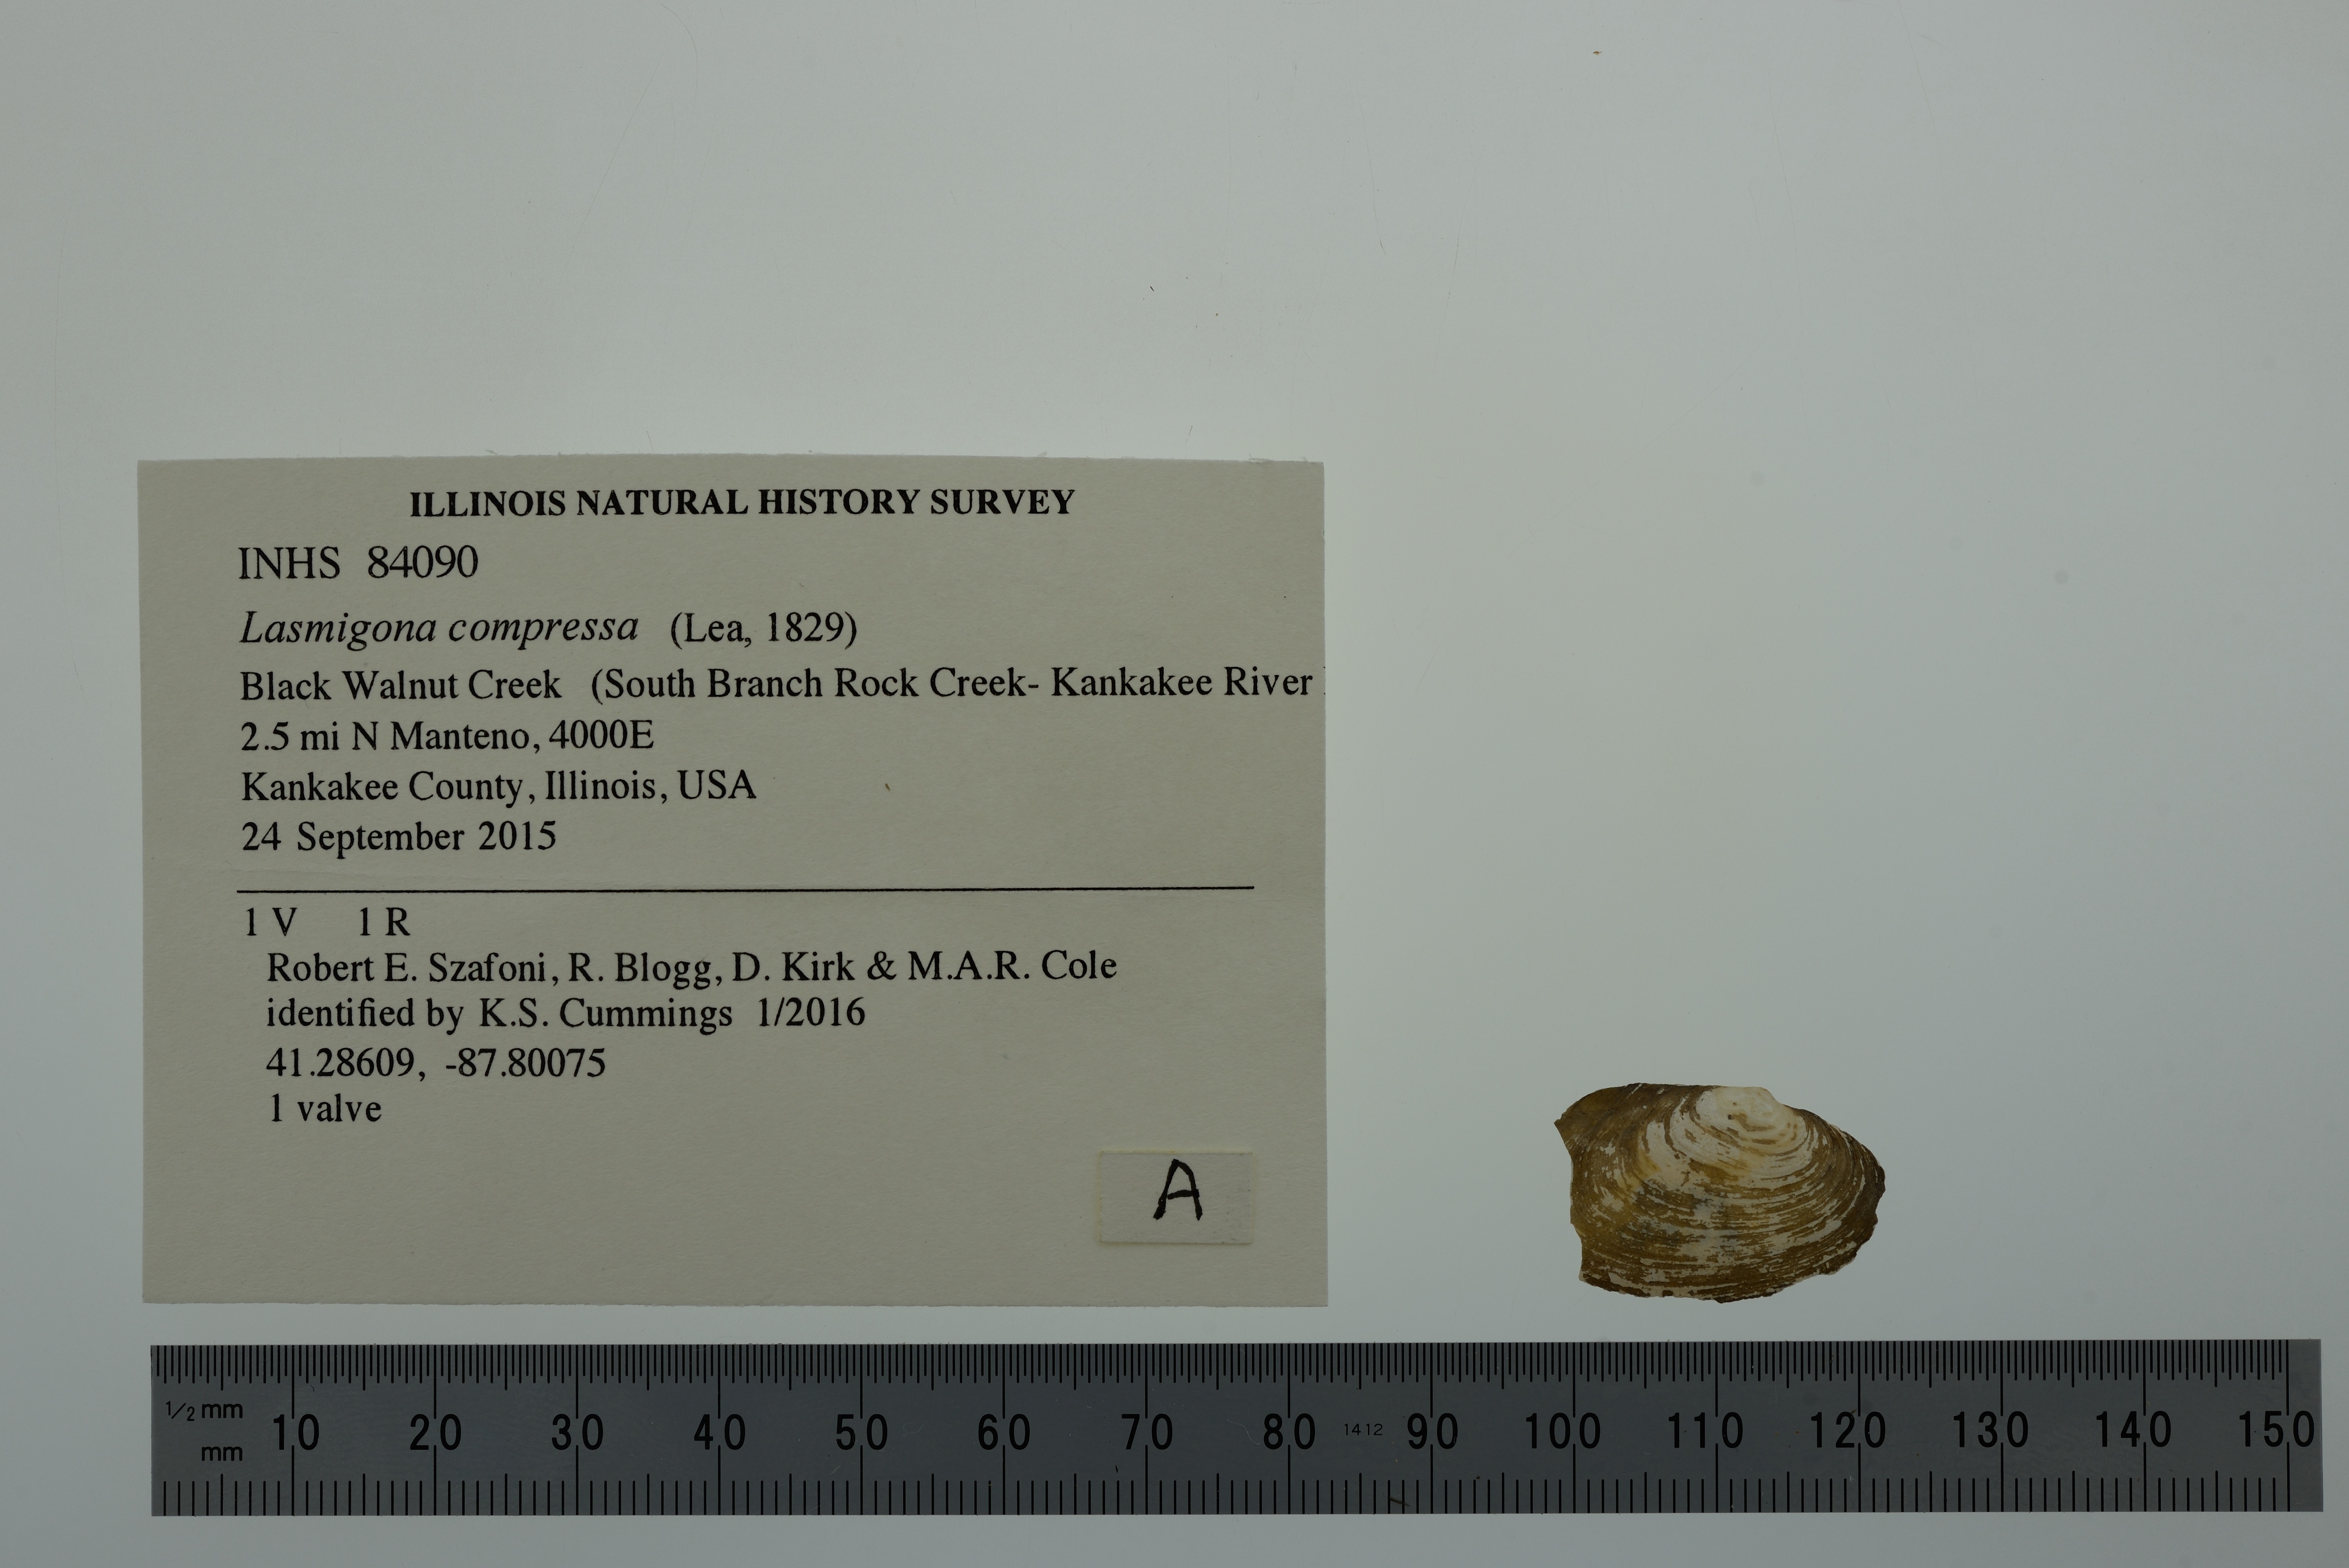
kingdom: Animalia
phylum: Mollusca
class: Bivalvia
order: Unionida
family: Unionidae
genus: Lasmigona
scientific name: Lasmigona compressa
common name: Creek heelsplitter
